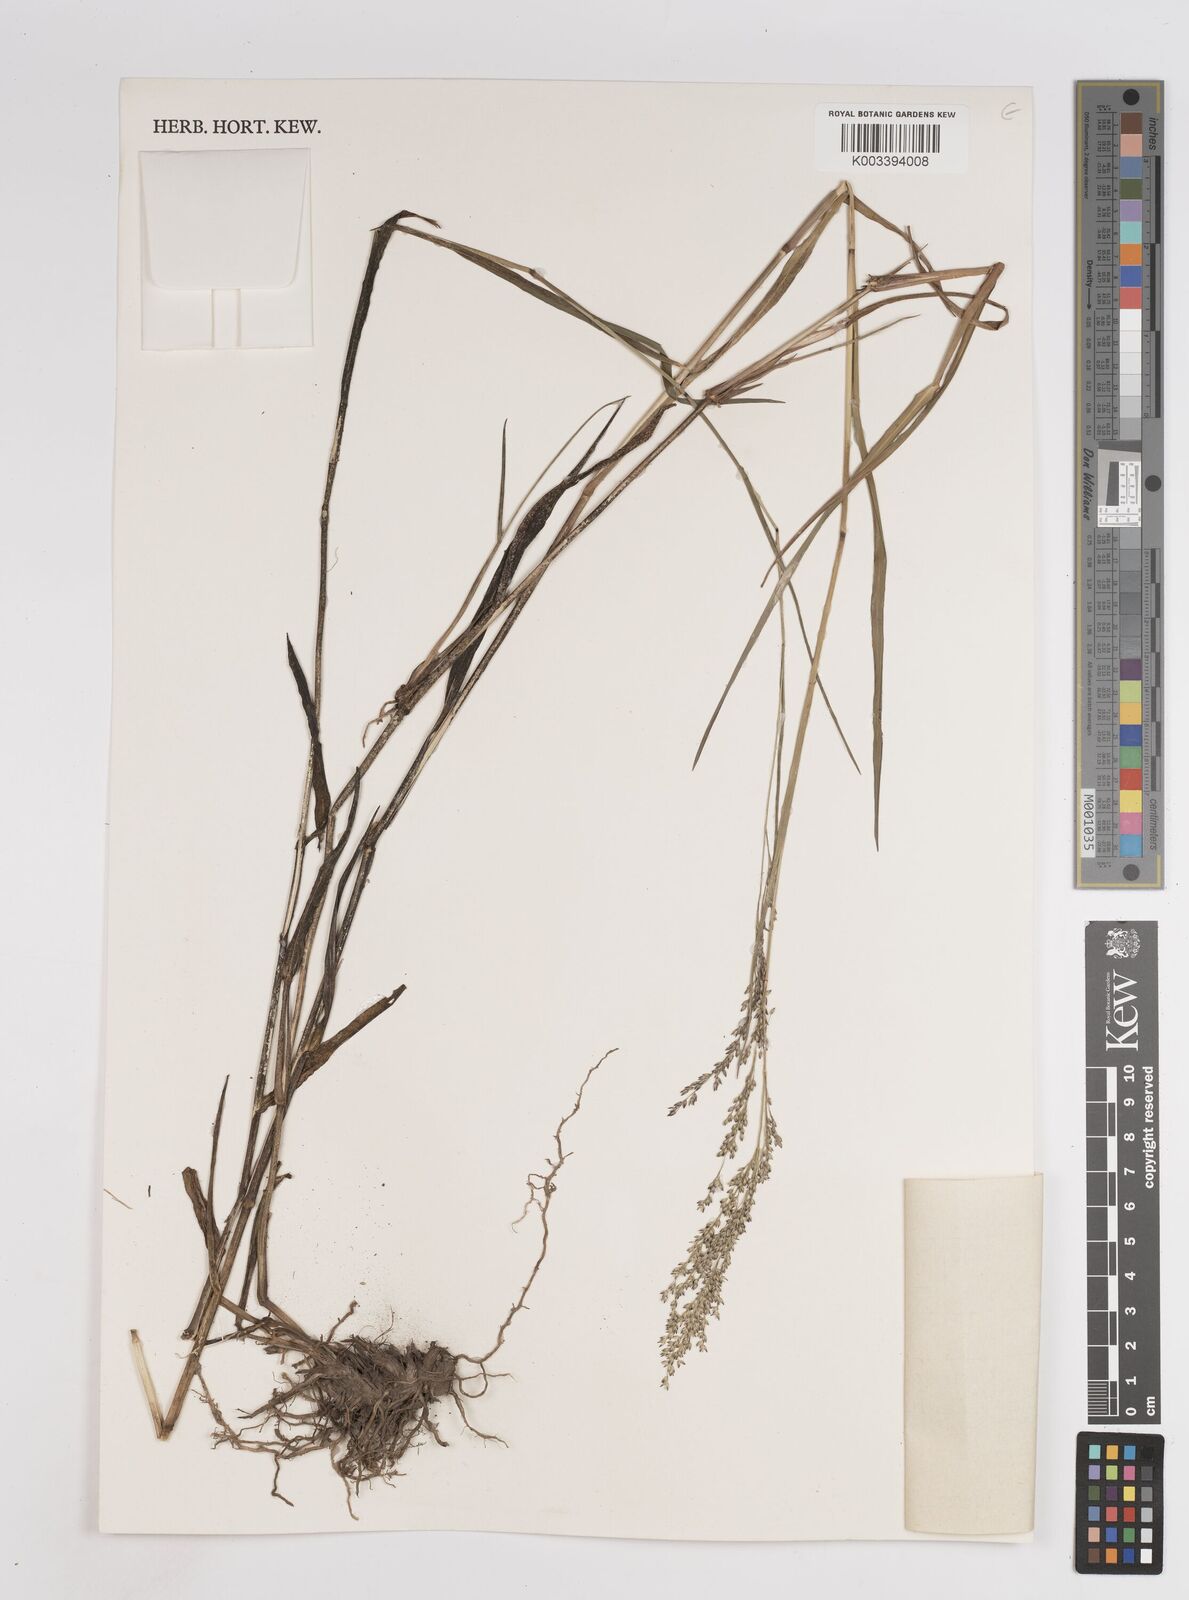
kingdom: Plantae
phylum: Tracheophyta
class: Liliopsida
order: Poales
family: Poaceae
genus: Panicum
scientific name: Panicum coloratum
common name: Kleingrass
